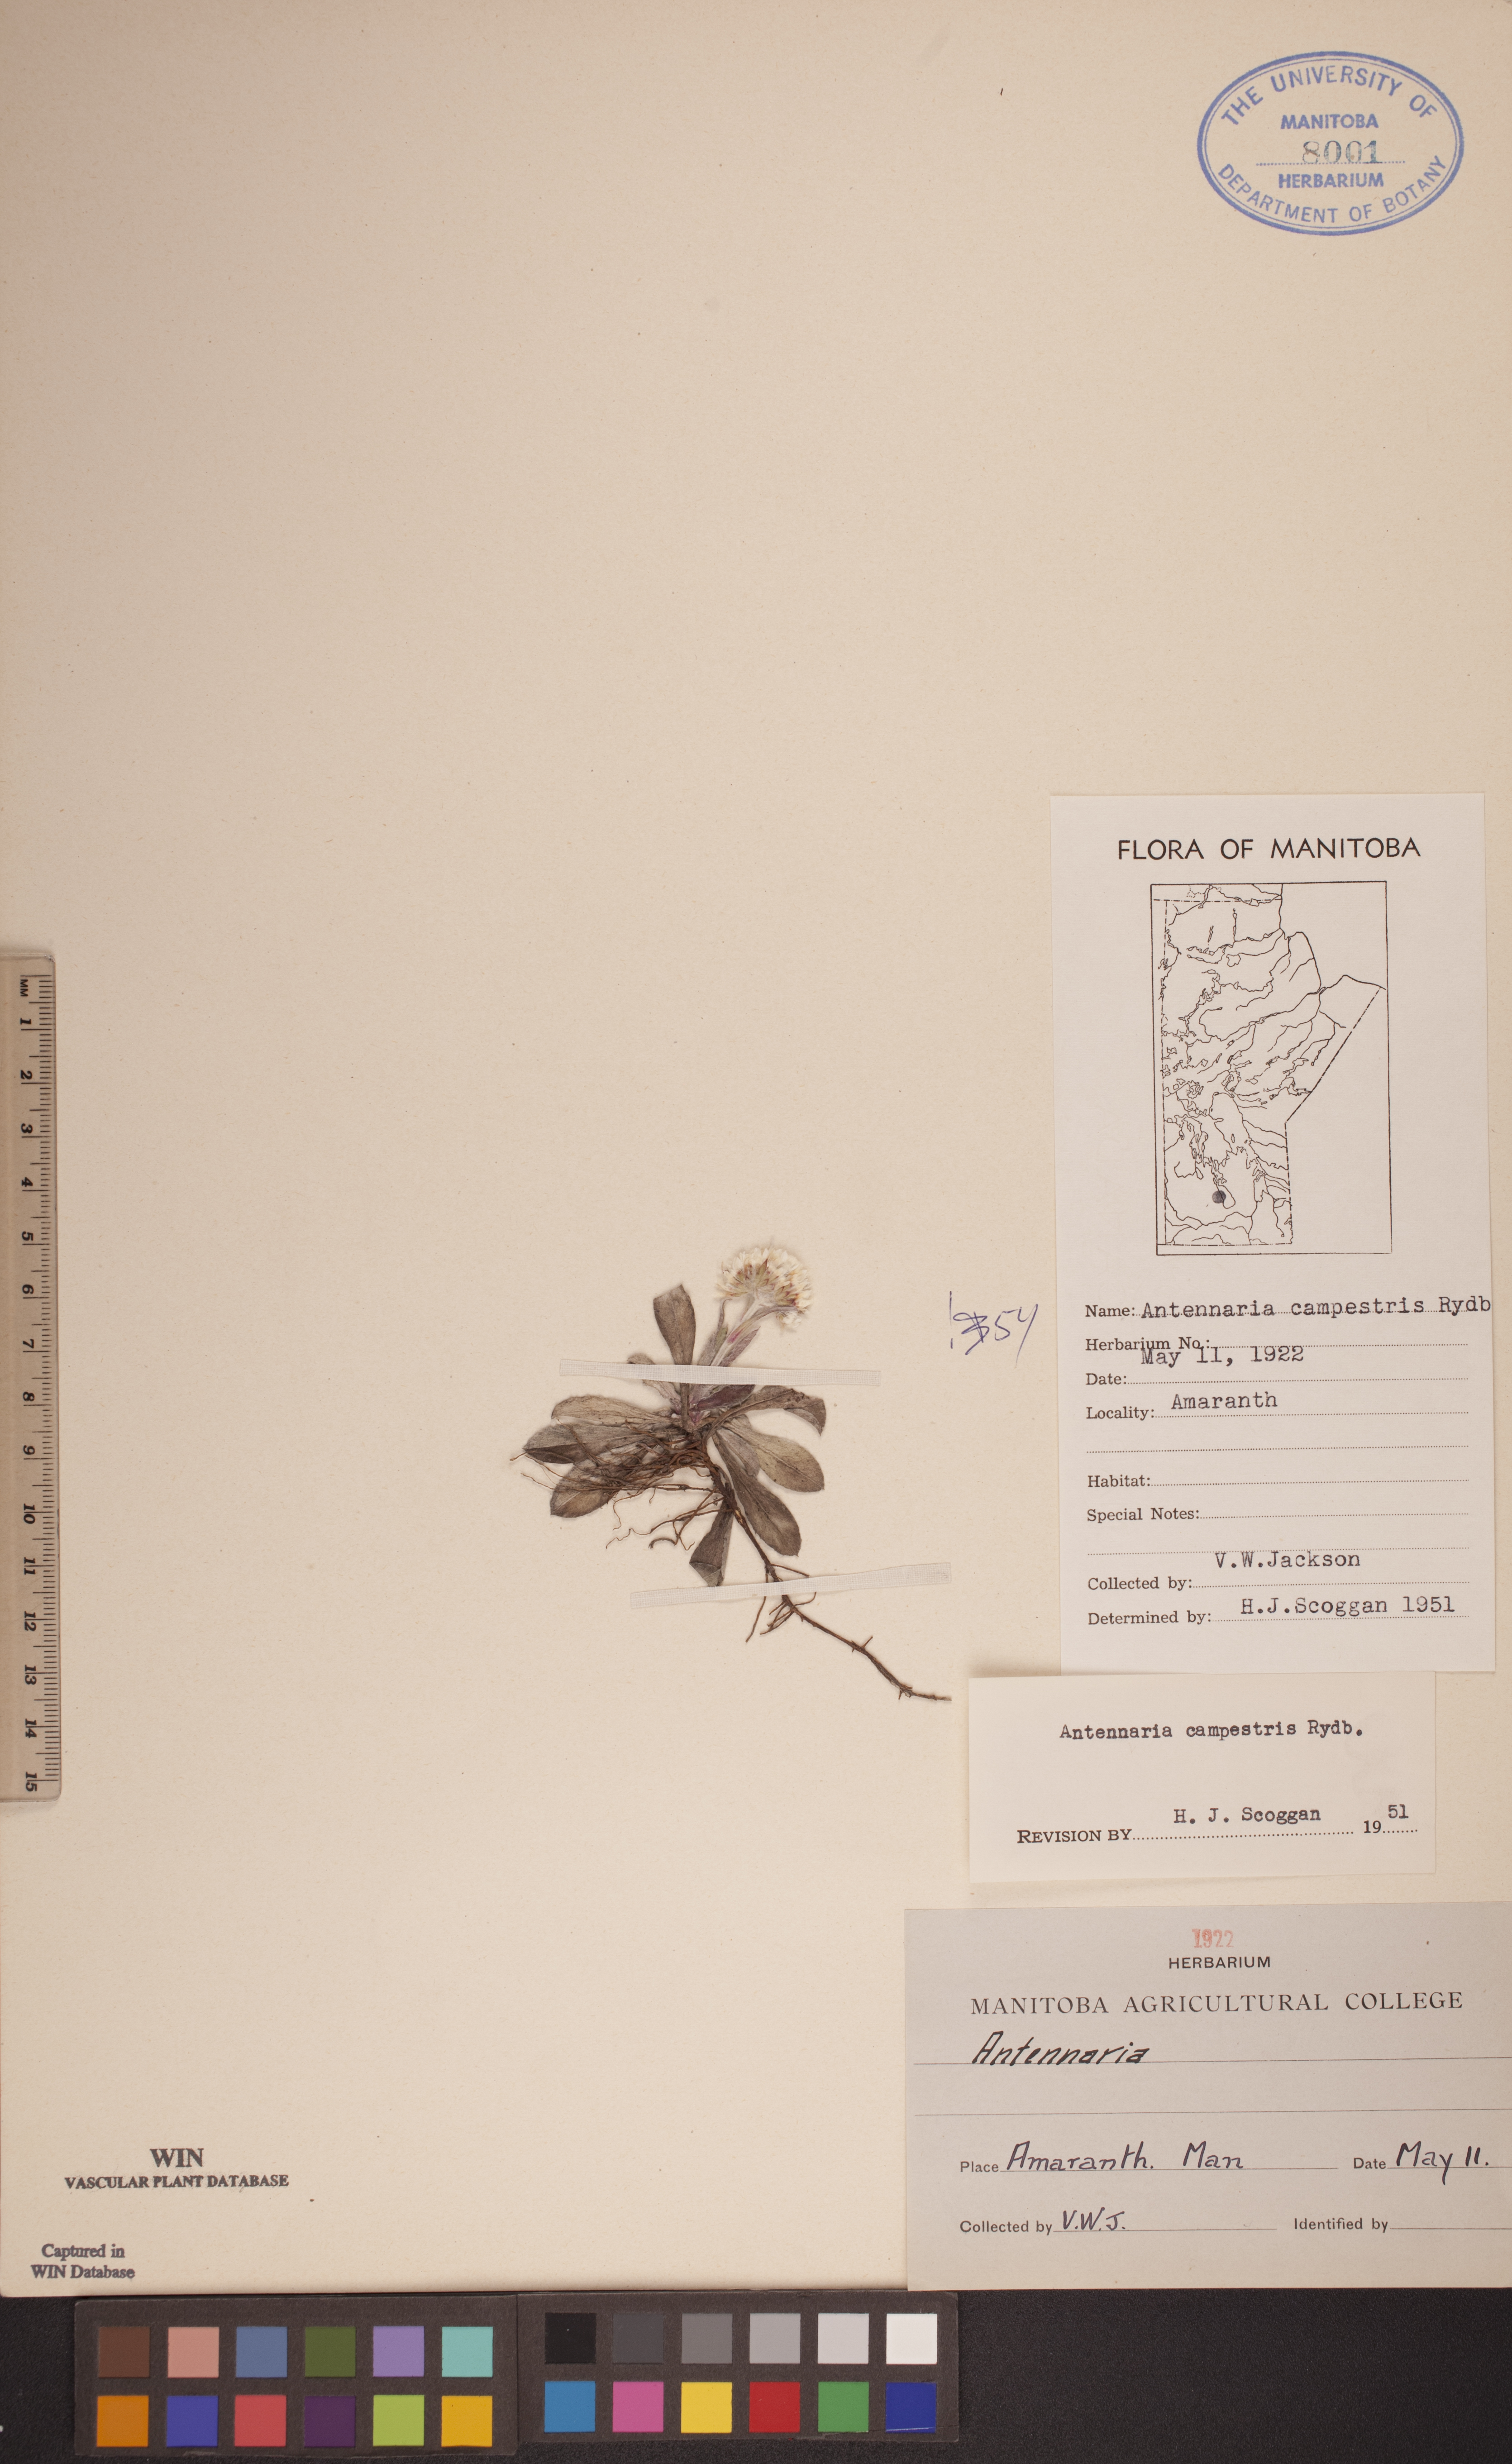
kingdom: Plantae
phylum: Tracheophyta
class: Magnoliopsida
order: Asterales
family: Asteraceae
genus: Antennaria
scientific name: Antennaria neglecta
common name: Field pussytoes
